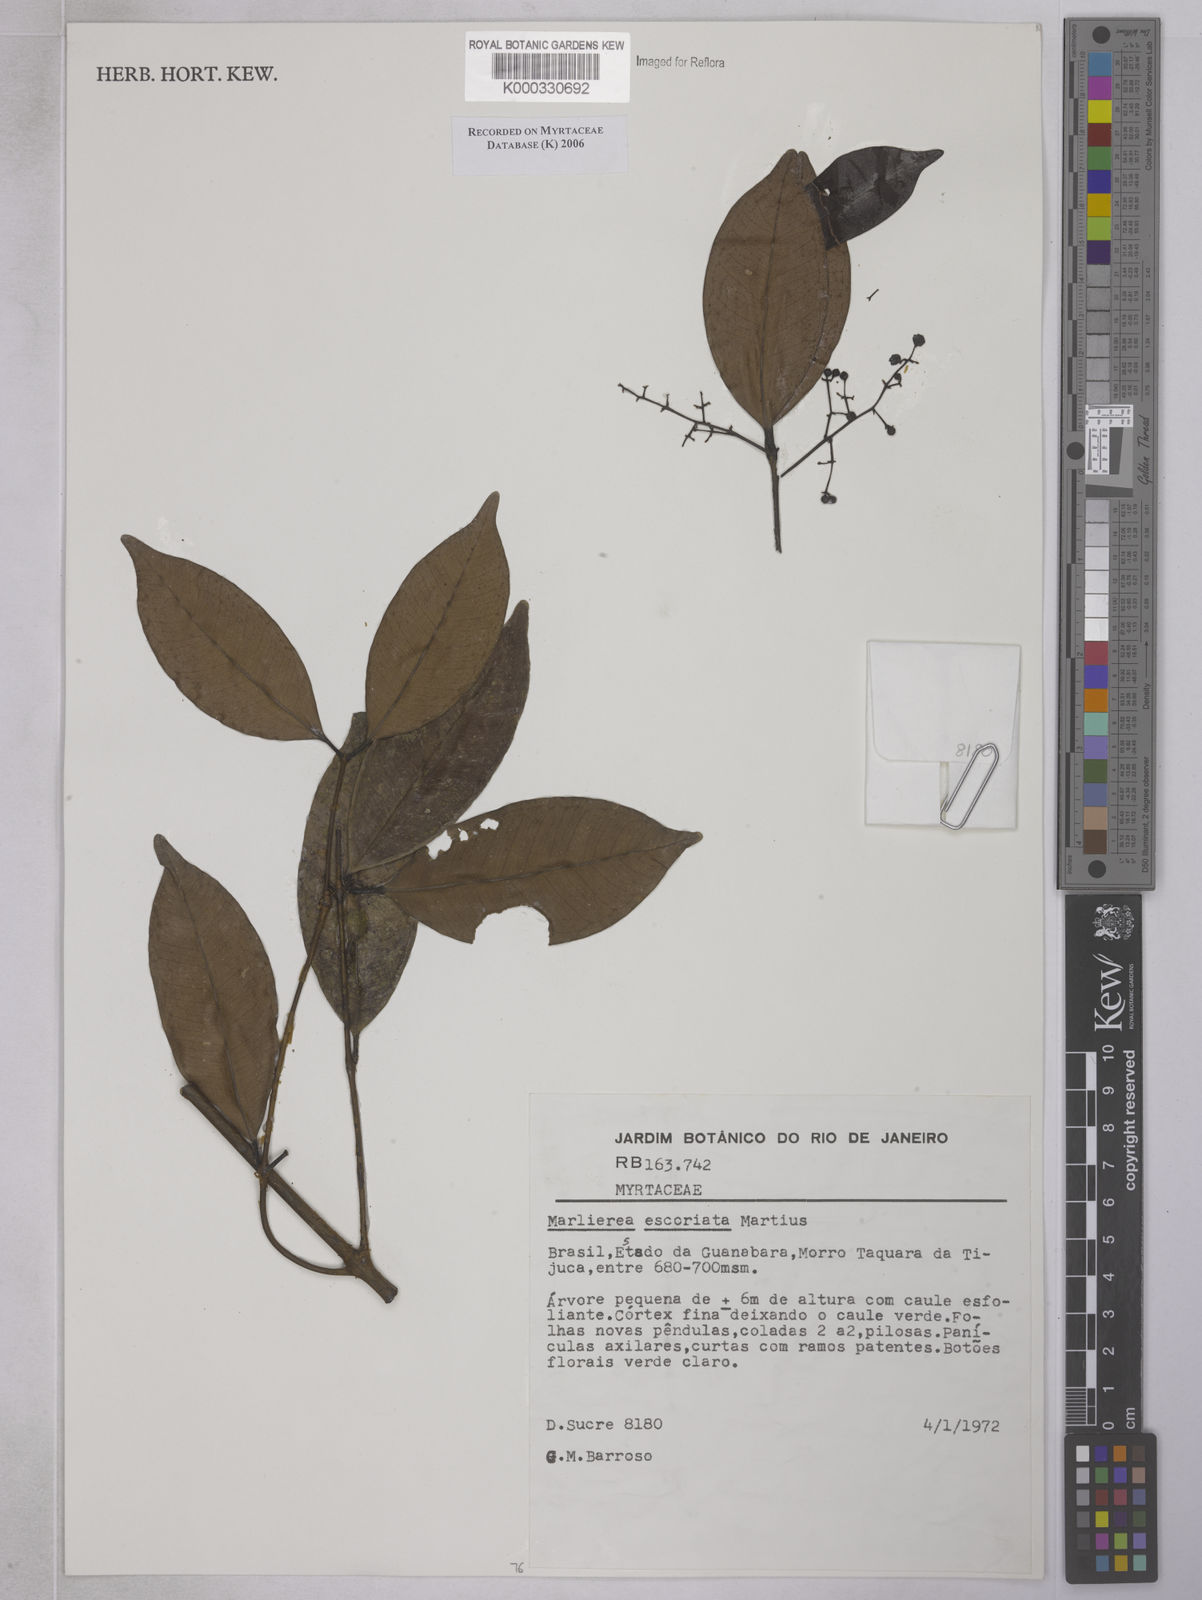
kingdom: Plantae
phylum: Tracheophyta
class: Magnoliopsida
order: Myrtales
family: Myrtaceae
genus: Myrcia
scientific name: Myrcia excoriata
